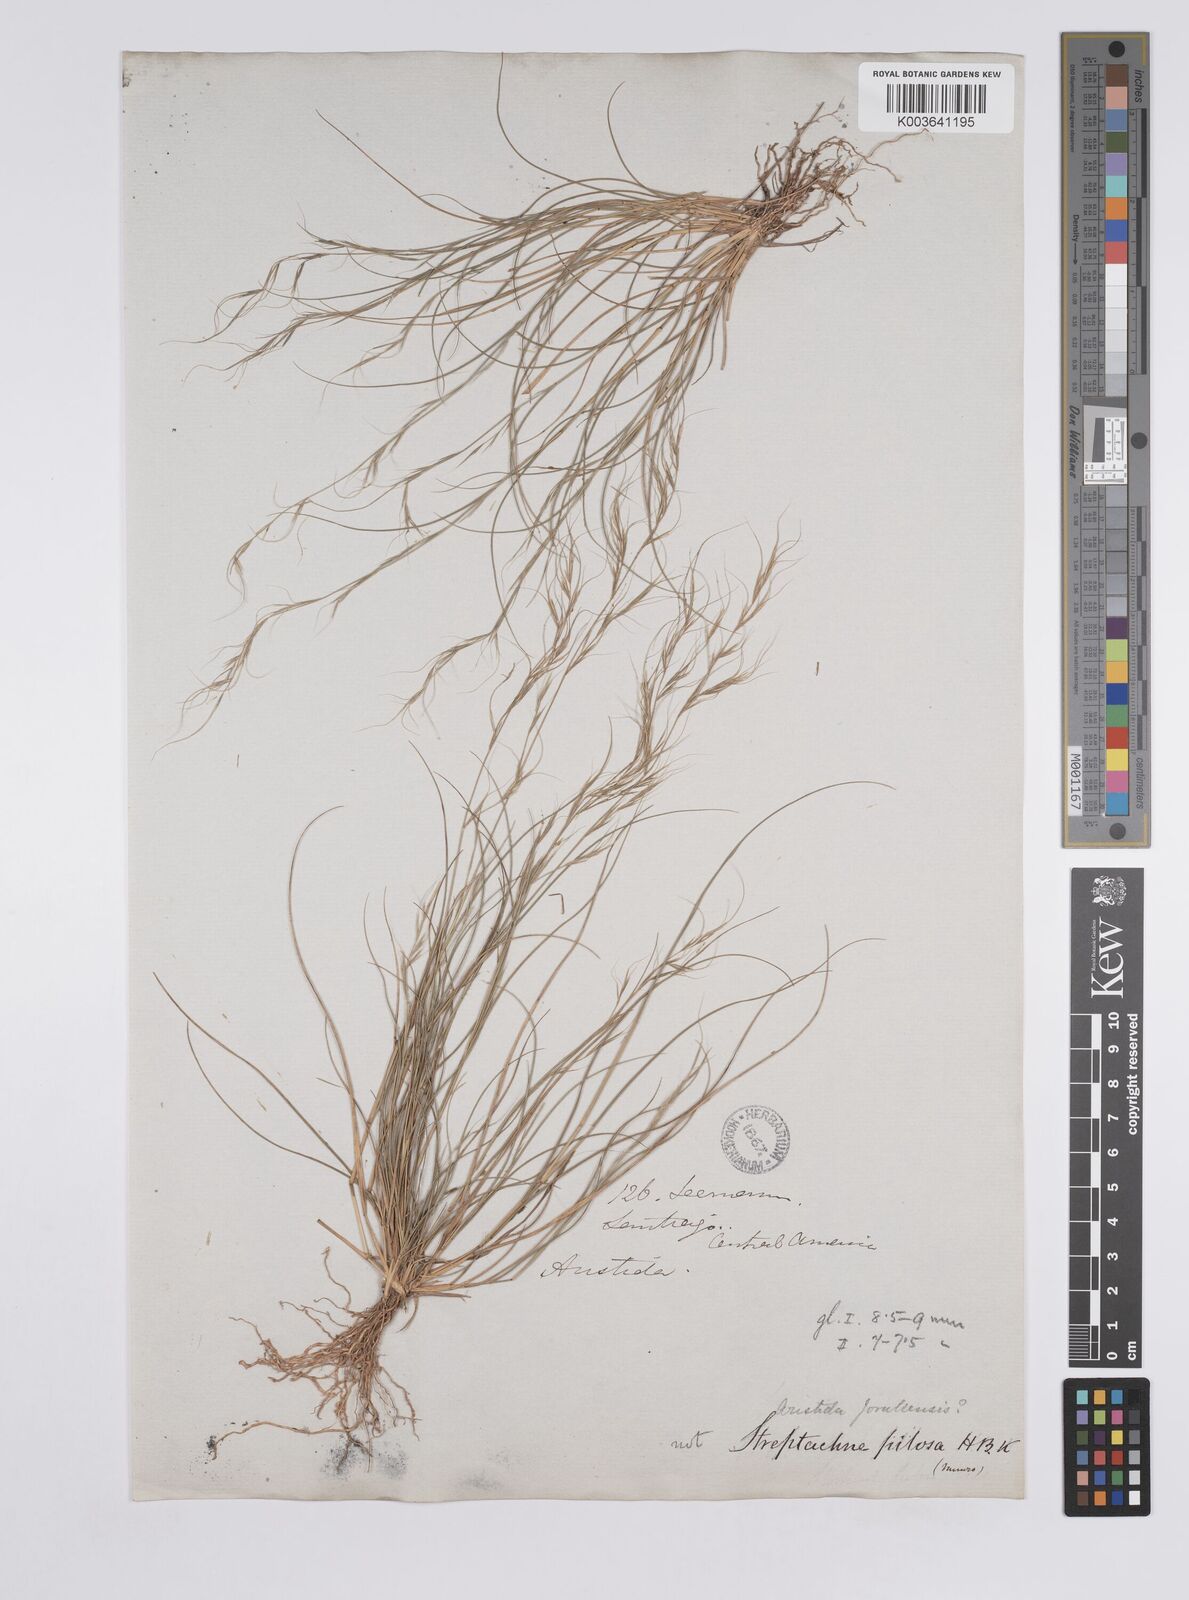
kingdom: Plantae
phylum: Tracheophyta
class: Liliopsida
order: Poales
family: Poaceae
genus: Aristida
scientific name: Aristida jorullensis
